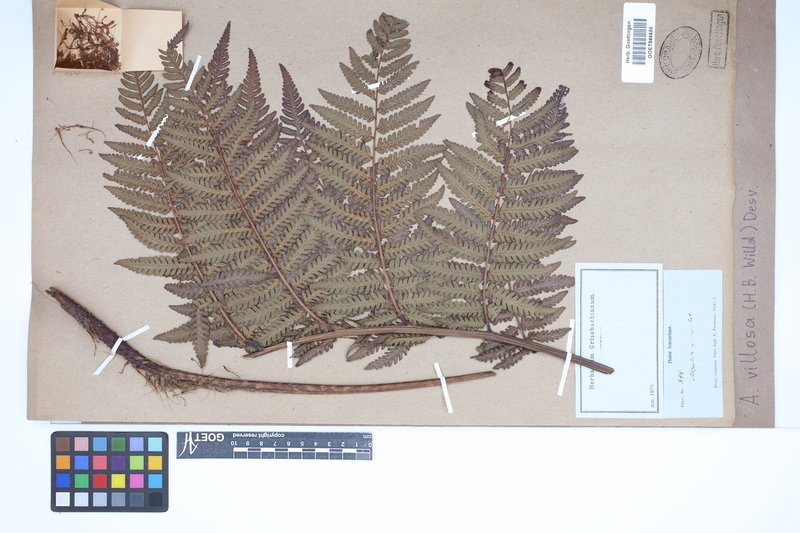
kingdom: Plantae
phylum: Tracheophyta
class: Polypodiopsida
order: Cyatheales
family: Cyatheaceae
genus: Cyathea
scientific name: Cyathea villosa
